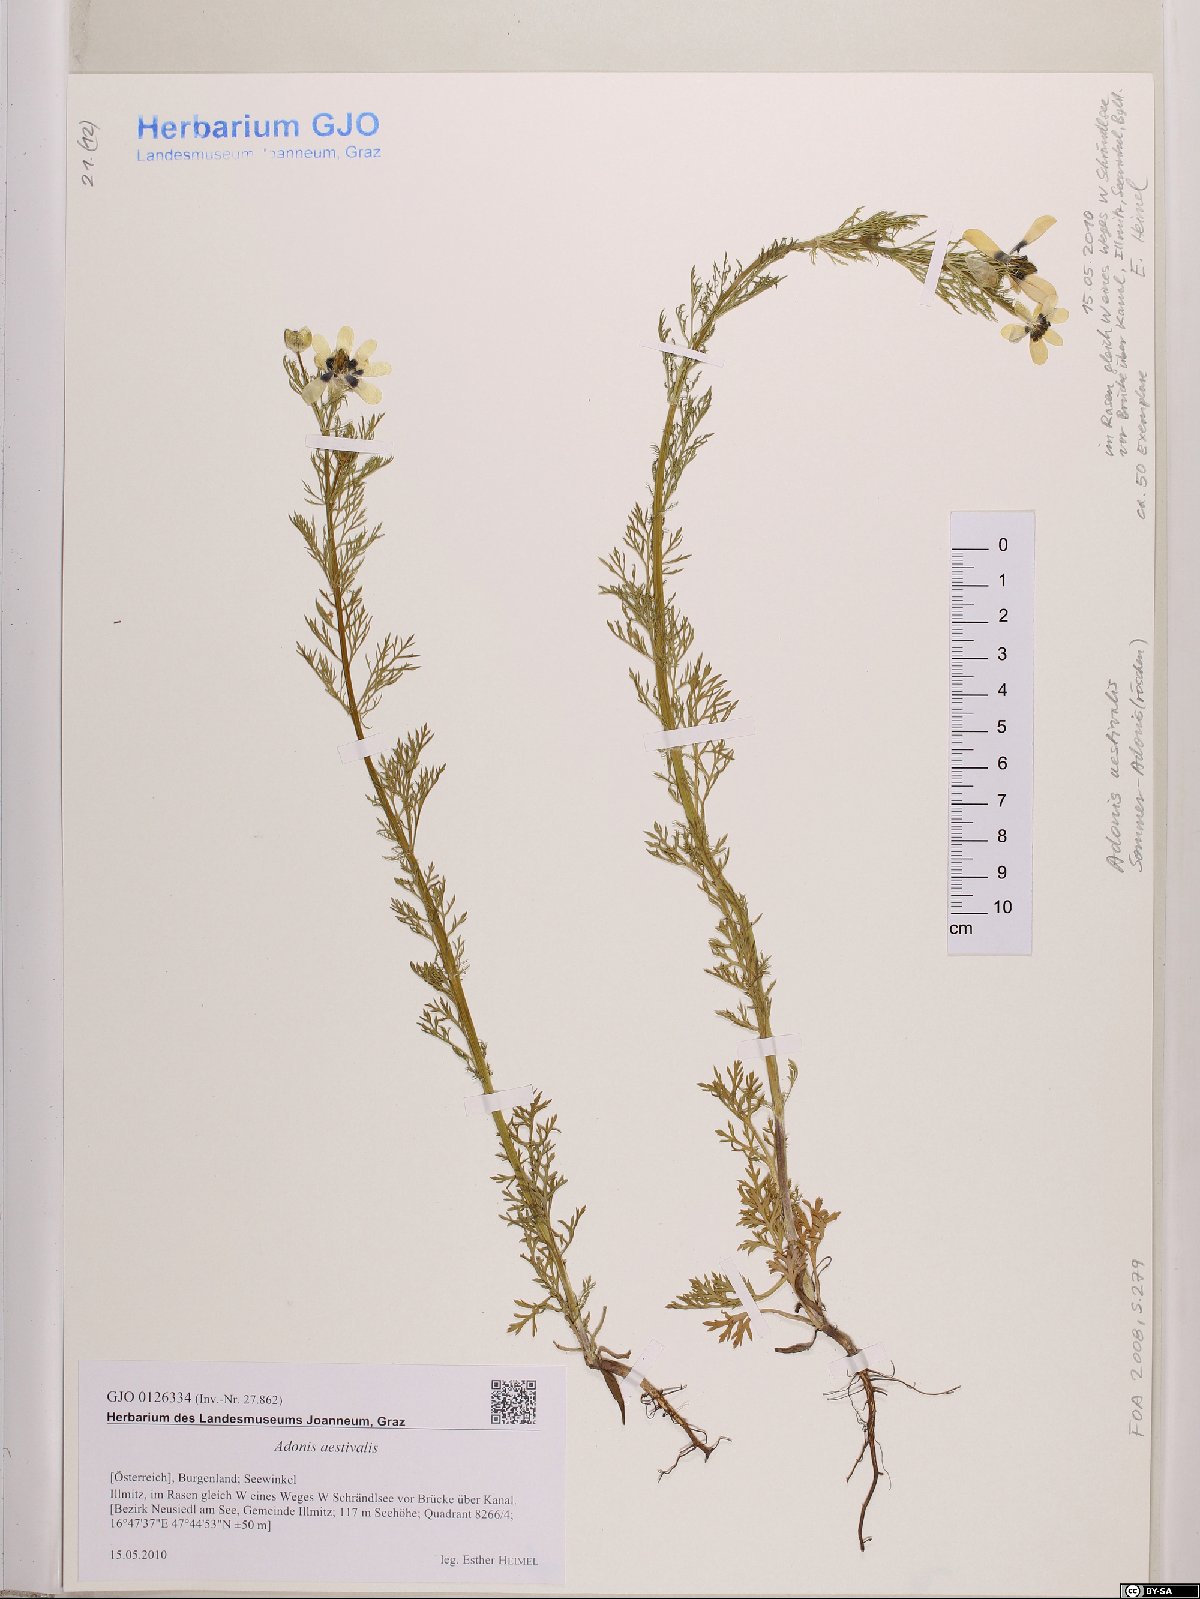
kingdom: Plantae
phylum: Tracheophyta
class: Magnoliopsida
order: Ranunculales
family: Ranunculaceae
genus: Adonis
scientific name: Adonis aestivalis
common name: Summer pheasant's-eye
